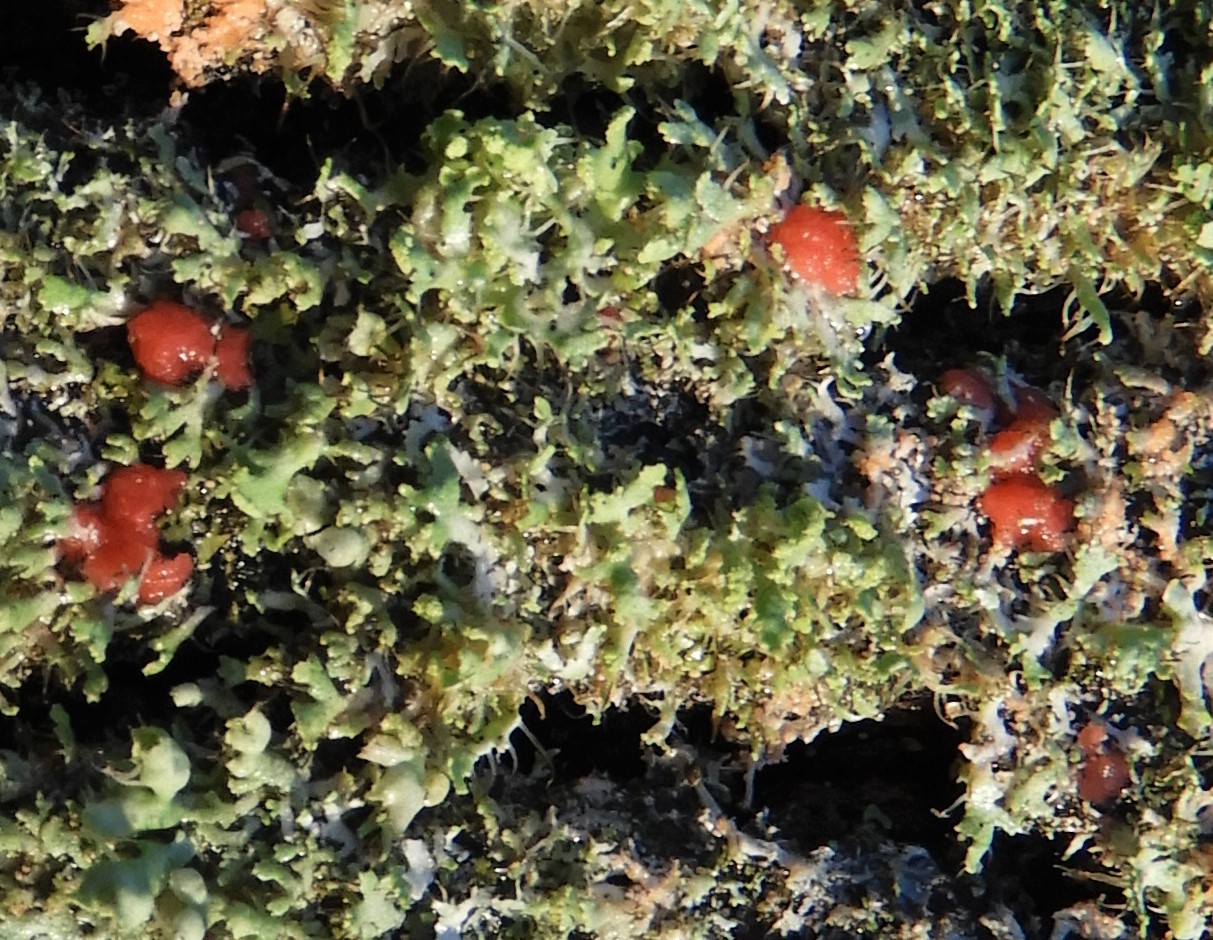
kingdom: Fungi
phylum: Ascomycota
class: Sordariomycetes
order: Hypocreales
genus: Illosporiopsis
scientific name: Illosporiopsis christiansenii
